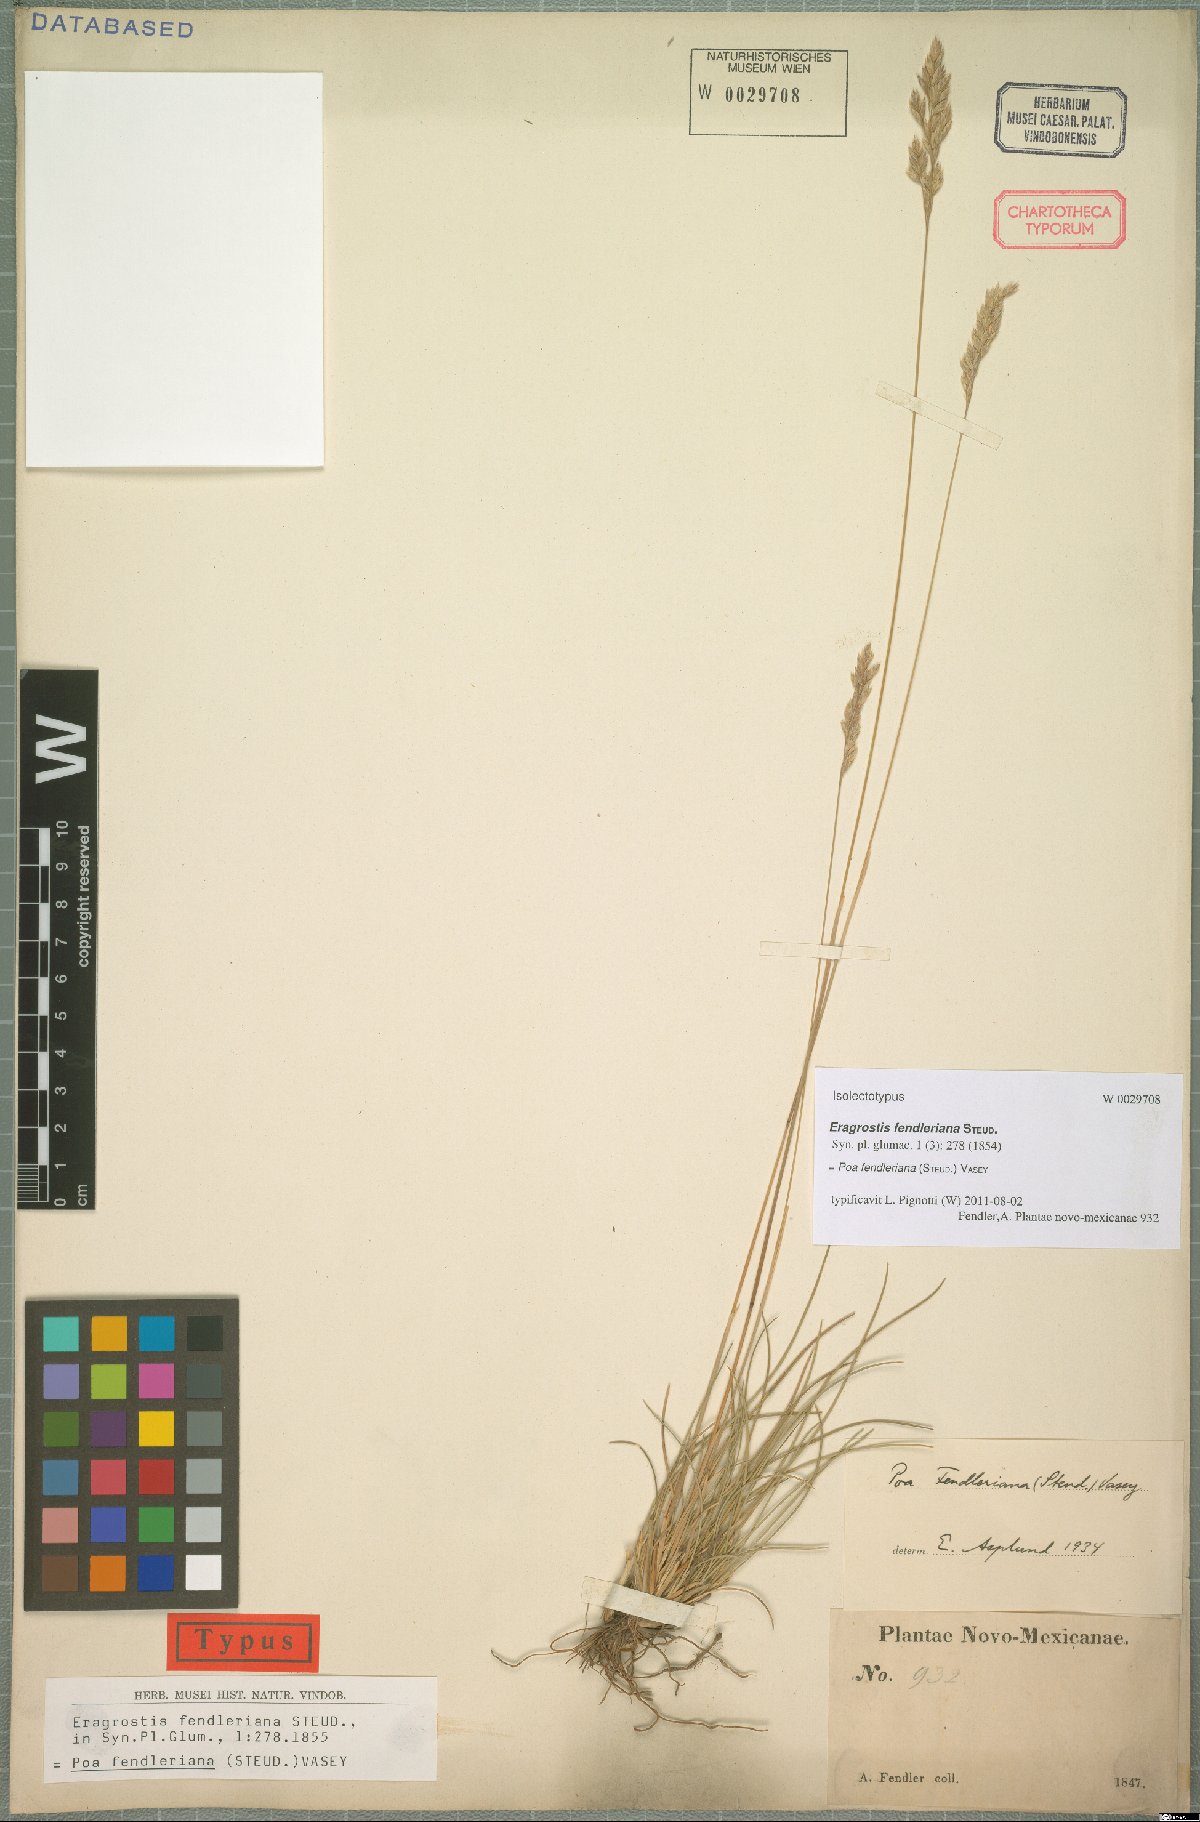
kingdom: Plantae
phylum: Tracheophyta
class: Liliopsida
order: Poales
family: Poaceae
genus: Poa
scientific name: Poa fendleriana
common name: Mutton bluegrass
